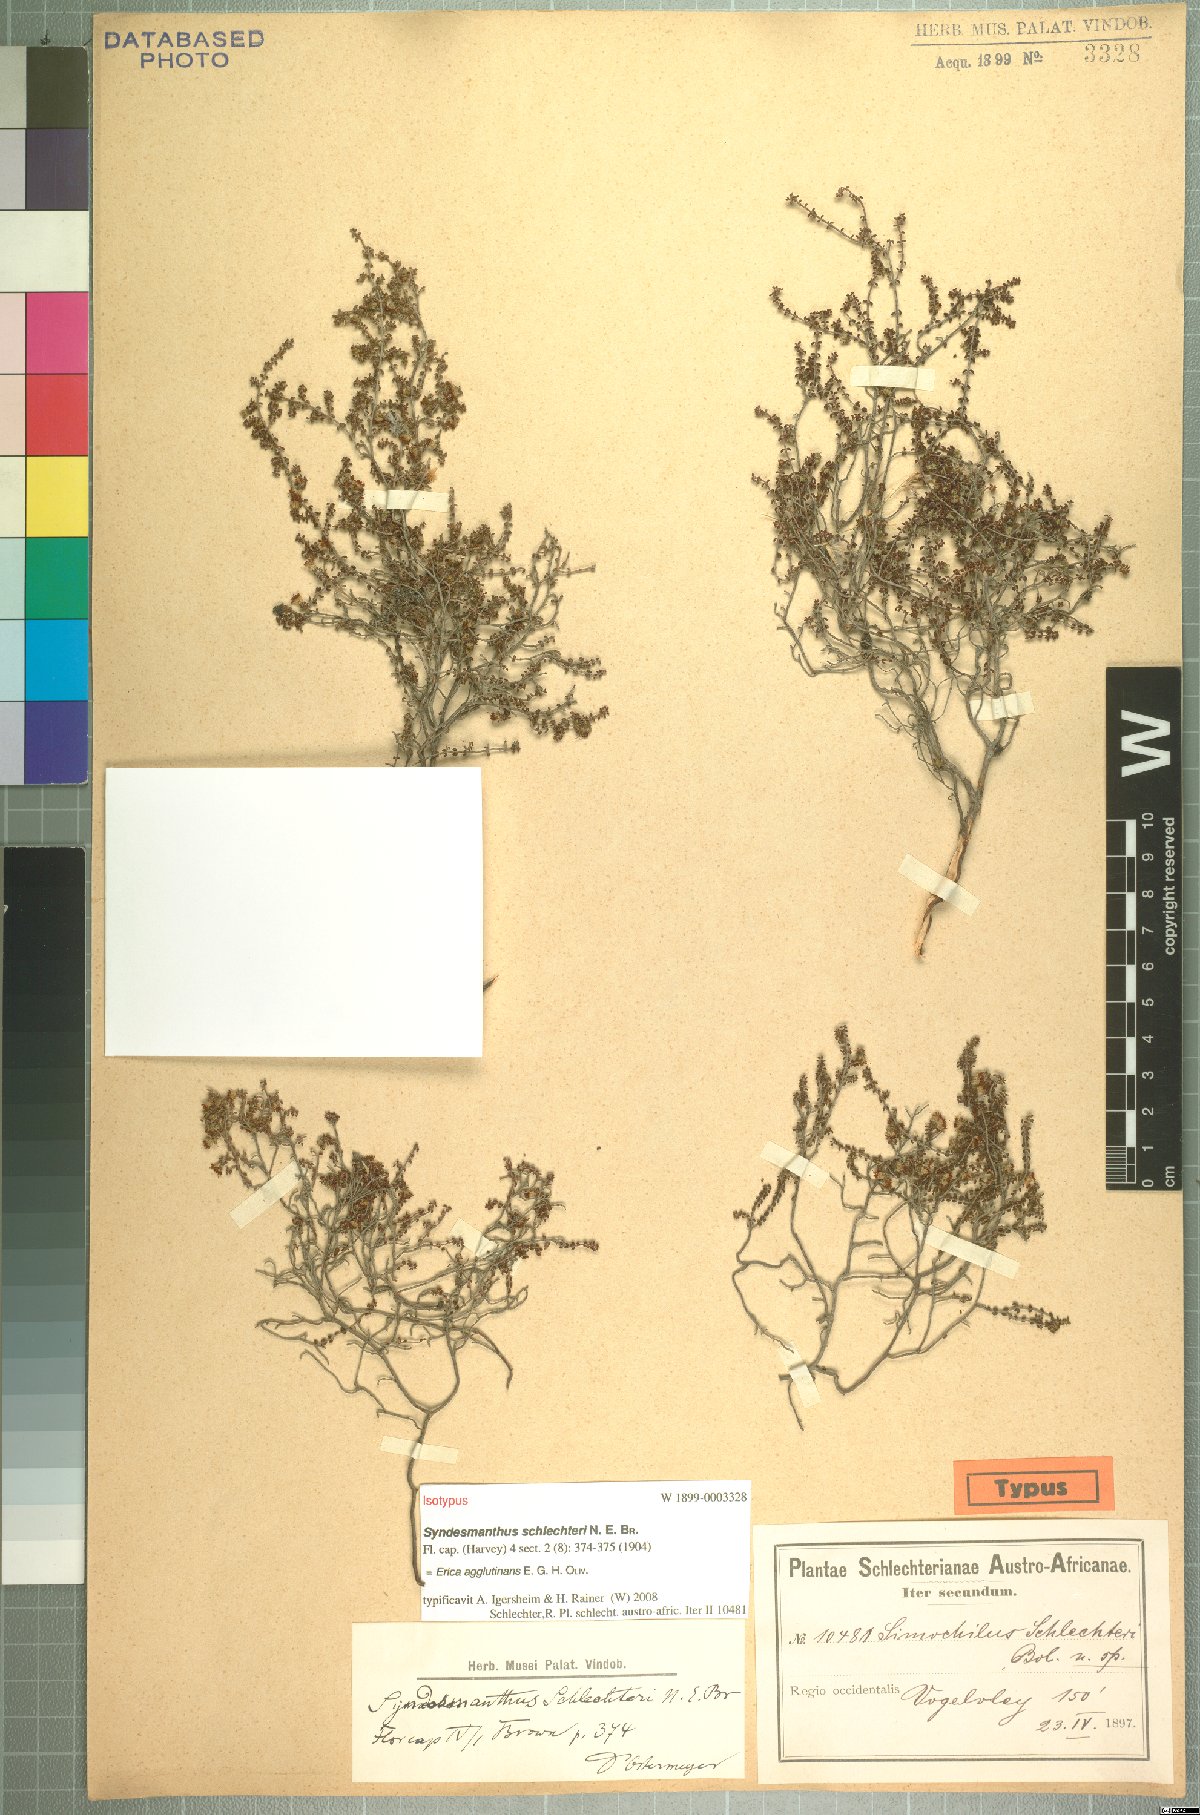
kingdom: Plantae
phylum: Tracheophyta
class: Magnoliopsida
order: Ericales
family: Ericaceae
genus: Erica
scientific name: Erica agglutinans
